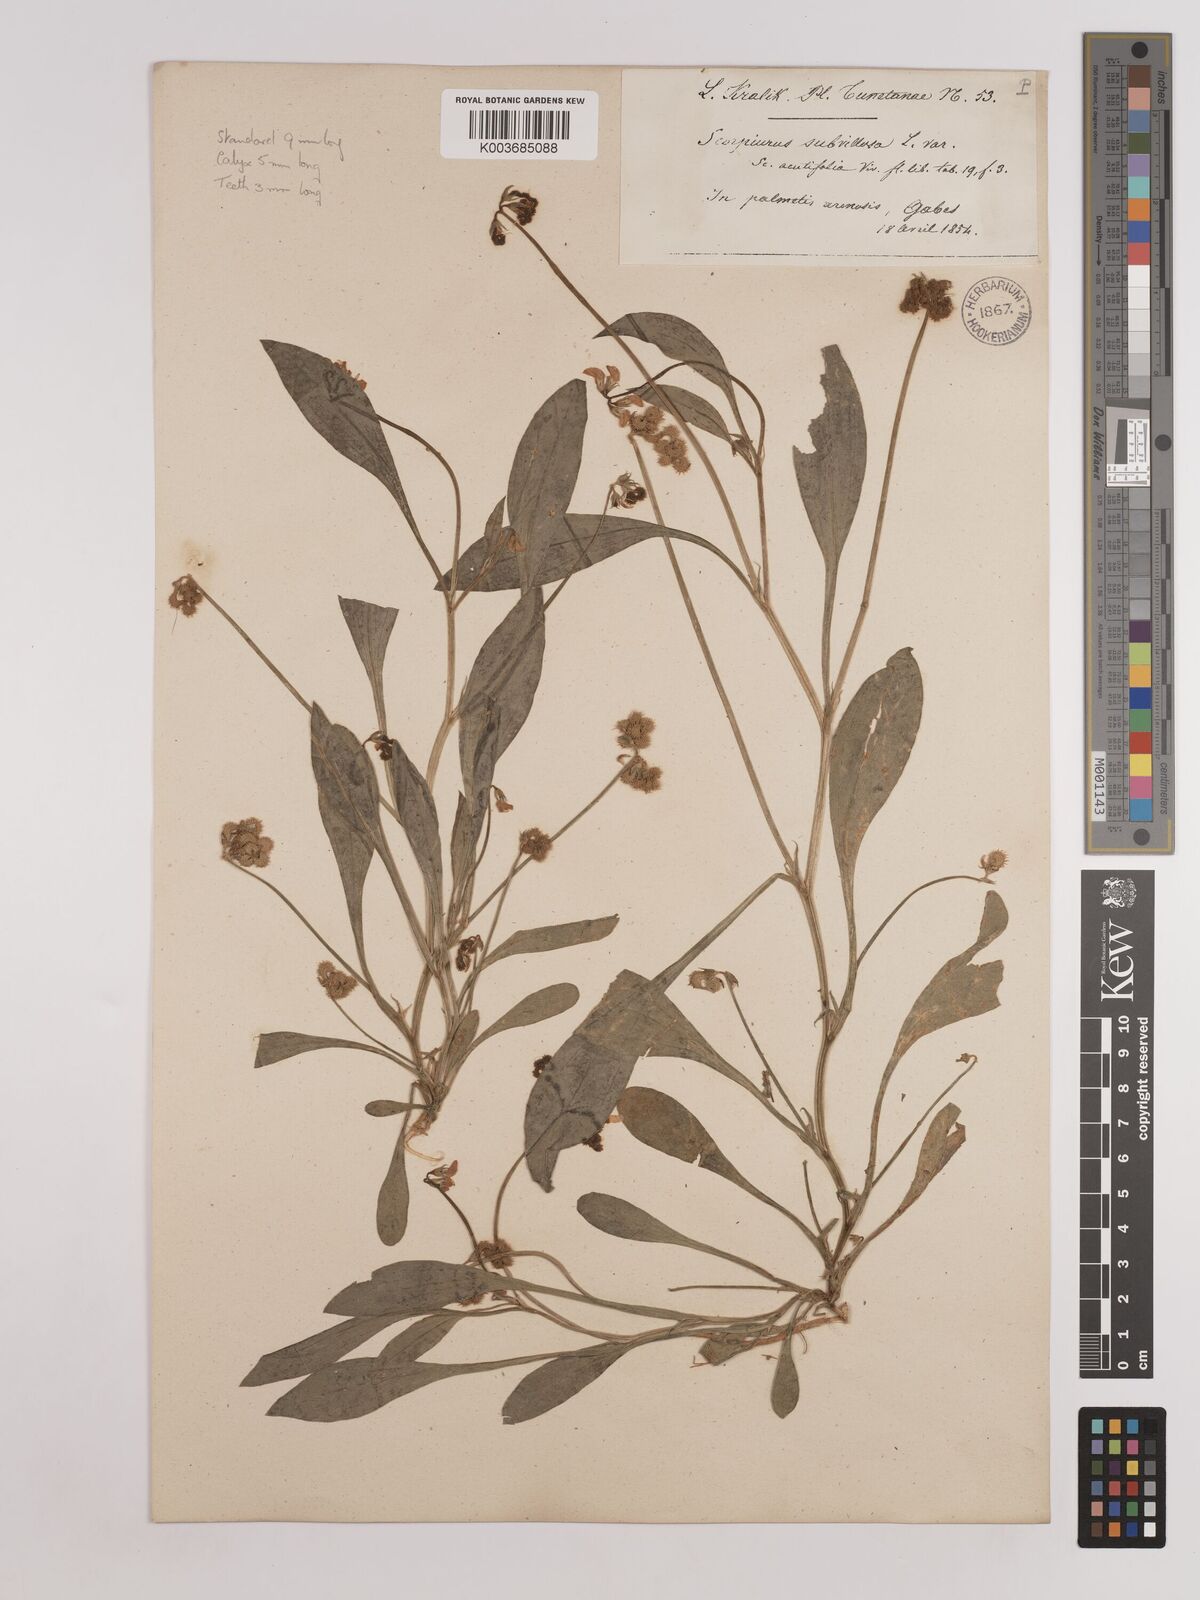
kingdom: Plantae
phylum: Tracheophyta
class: Magnoliopsida
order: Fabales
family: Fabaceae
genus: Scorpiurus
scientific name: Scorpiurus muricatus
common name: Caterpillar-plant
